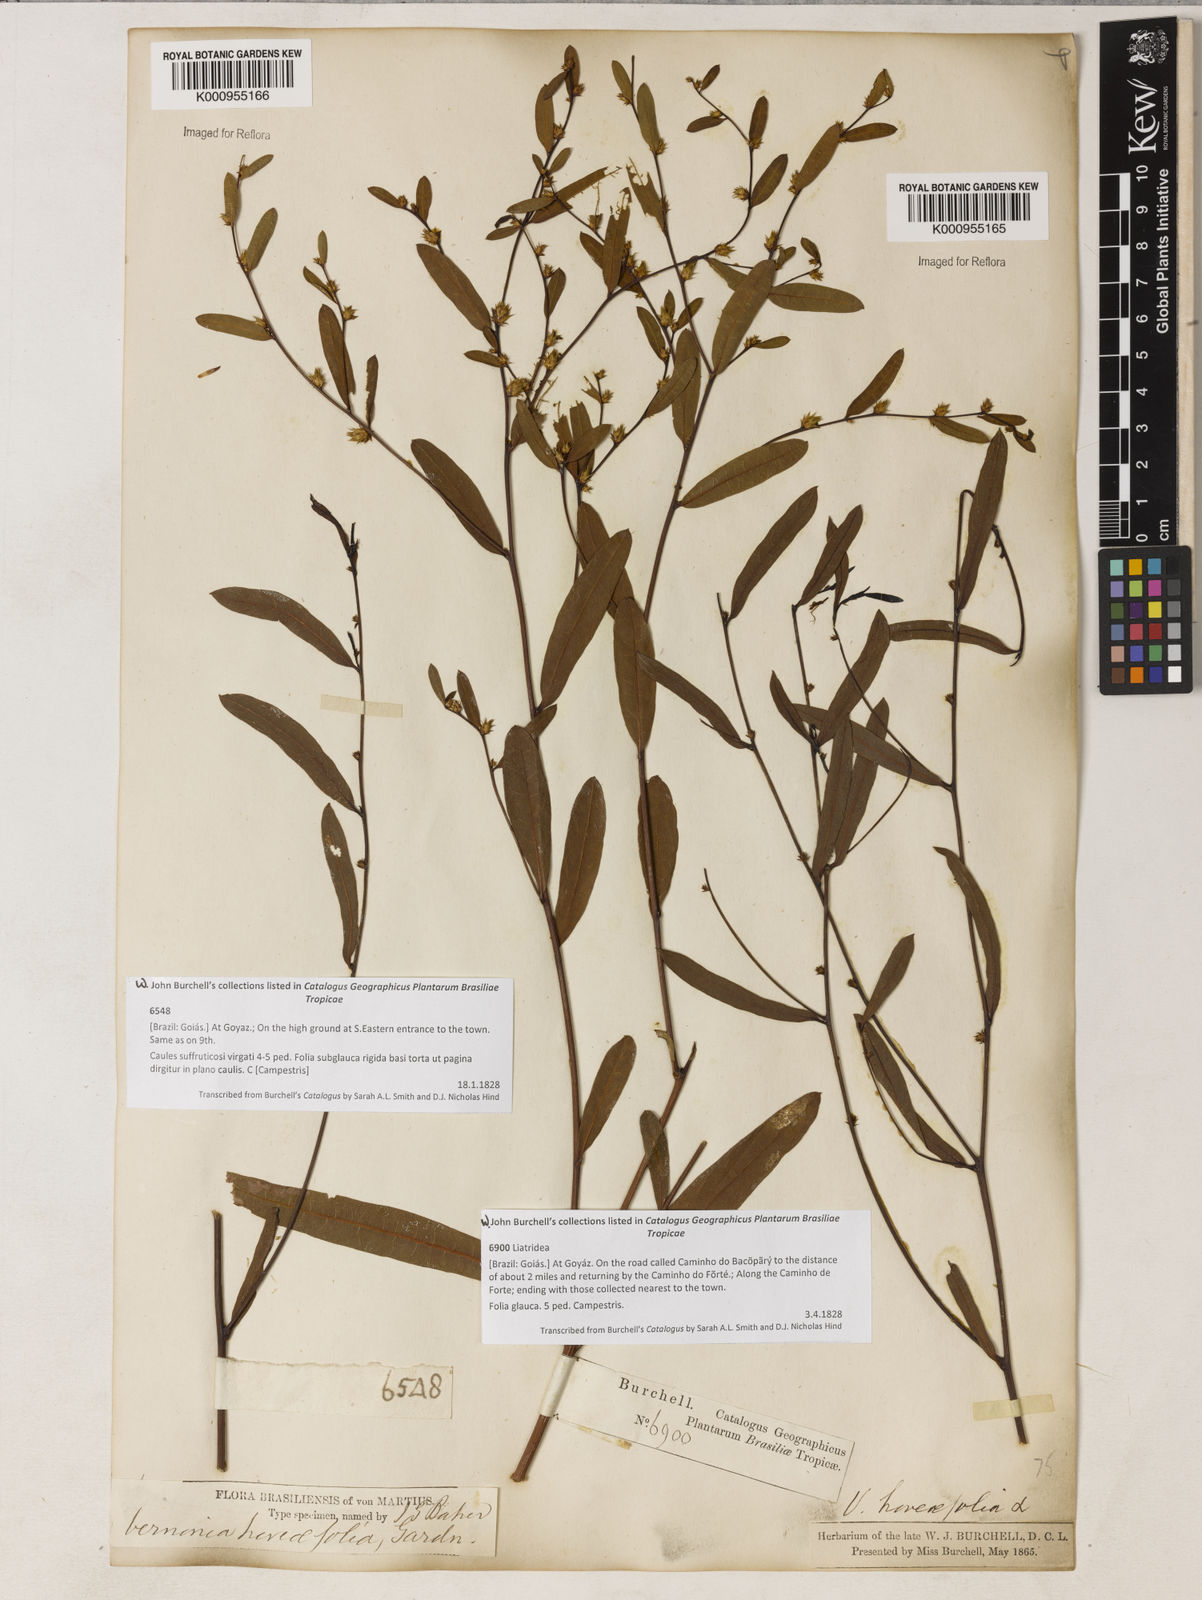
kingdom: Plantae
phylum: Tracheophyta
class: Magnoliopsida
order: Asterales
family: Asteraceae
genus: Lessingianthus
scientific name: Lessingianthus hoveifolius
